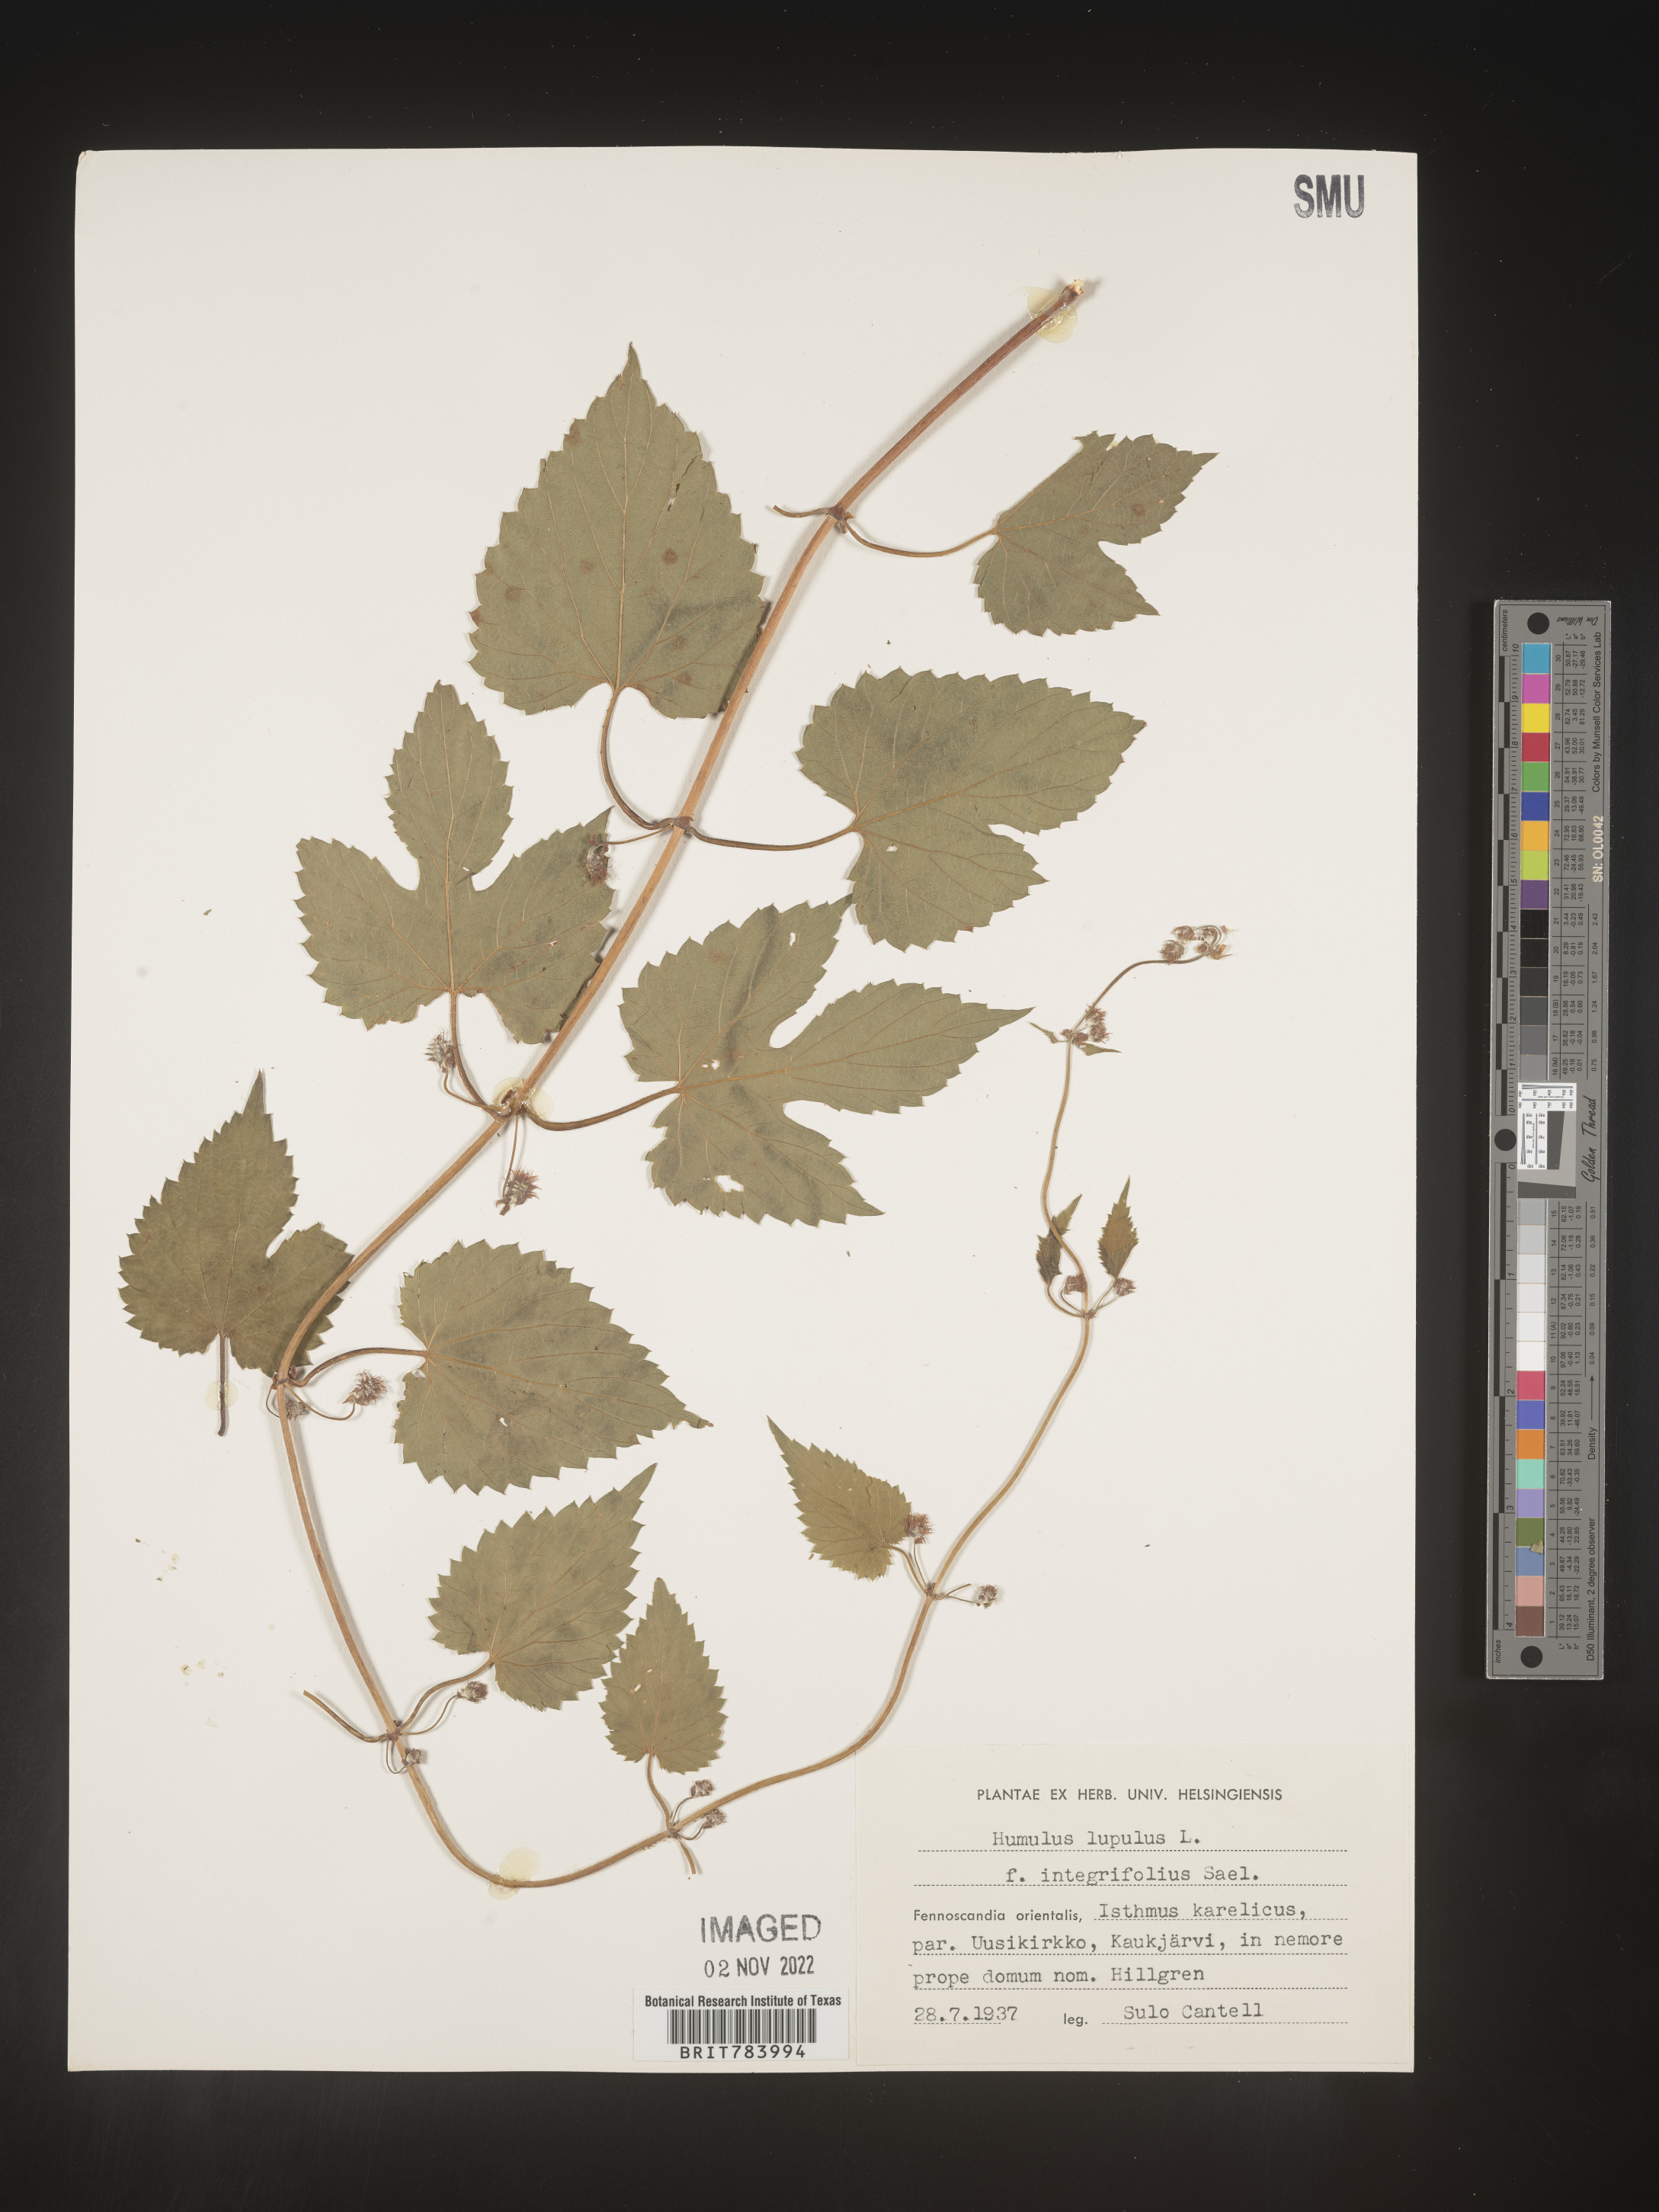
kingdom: Plantae
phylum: Tracheophyta
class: Magnoliopsida
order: Rosales
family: Cannabaceae
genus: Humulus
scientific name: Humulus
